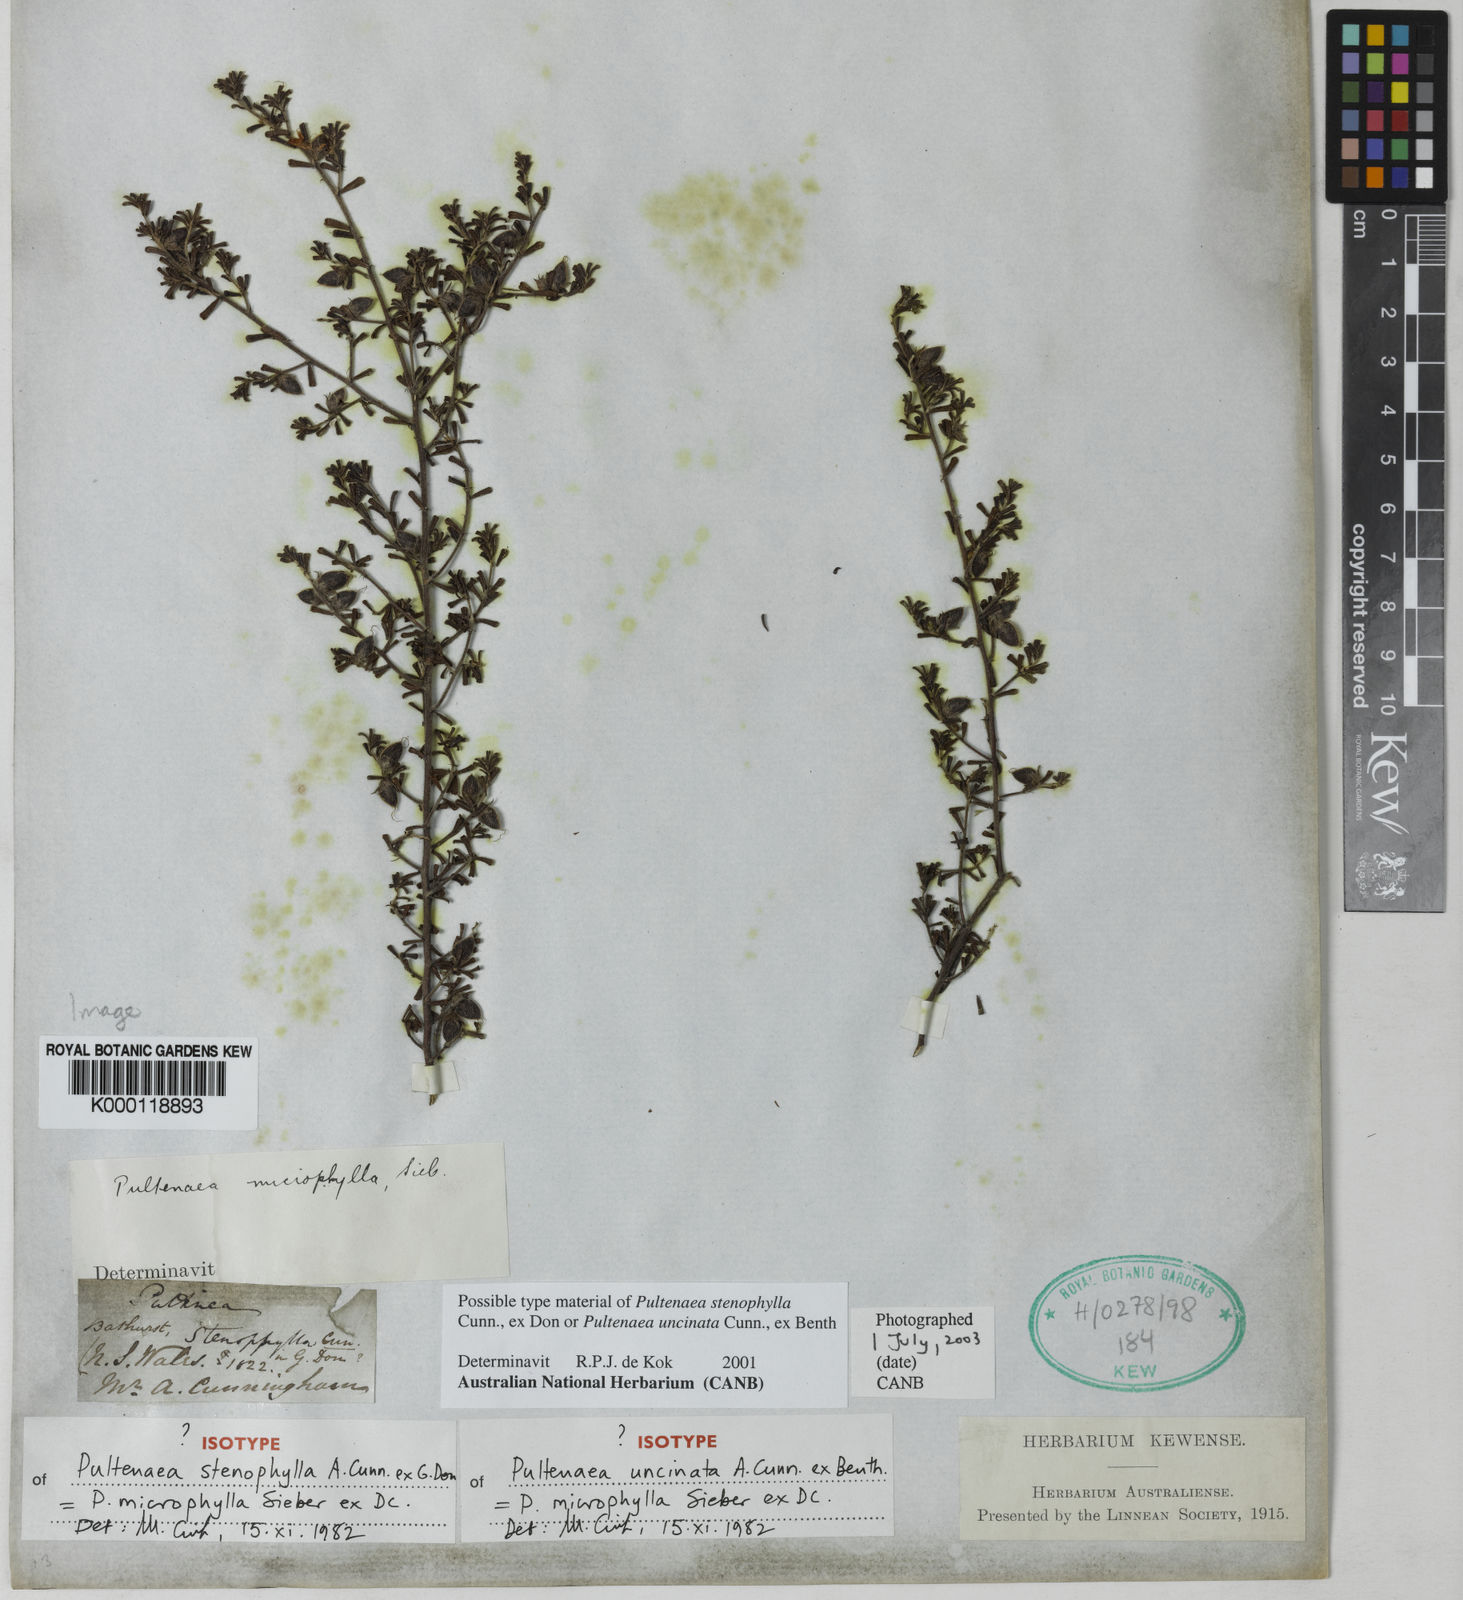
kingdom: Plantae
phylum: Tracheophyta
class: Magnoliopsida
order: Fabales
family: Fabaceae
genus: Pultenaea
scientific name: Pultenaea microphylla
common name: Spreading bush-pea
